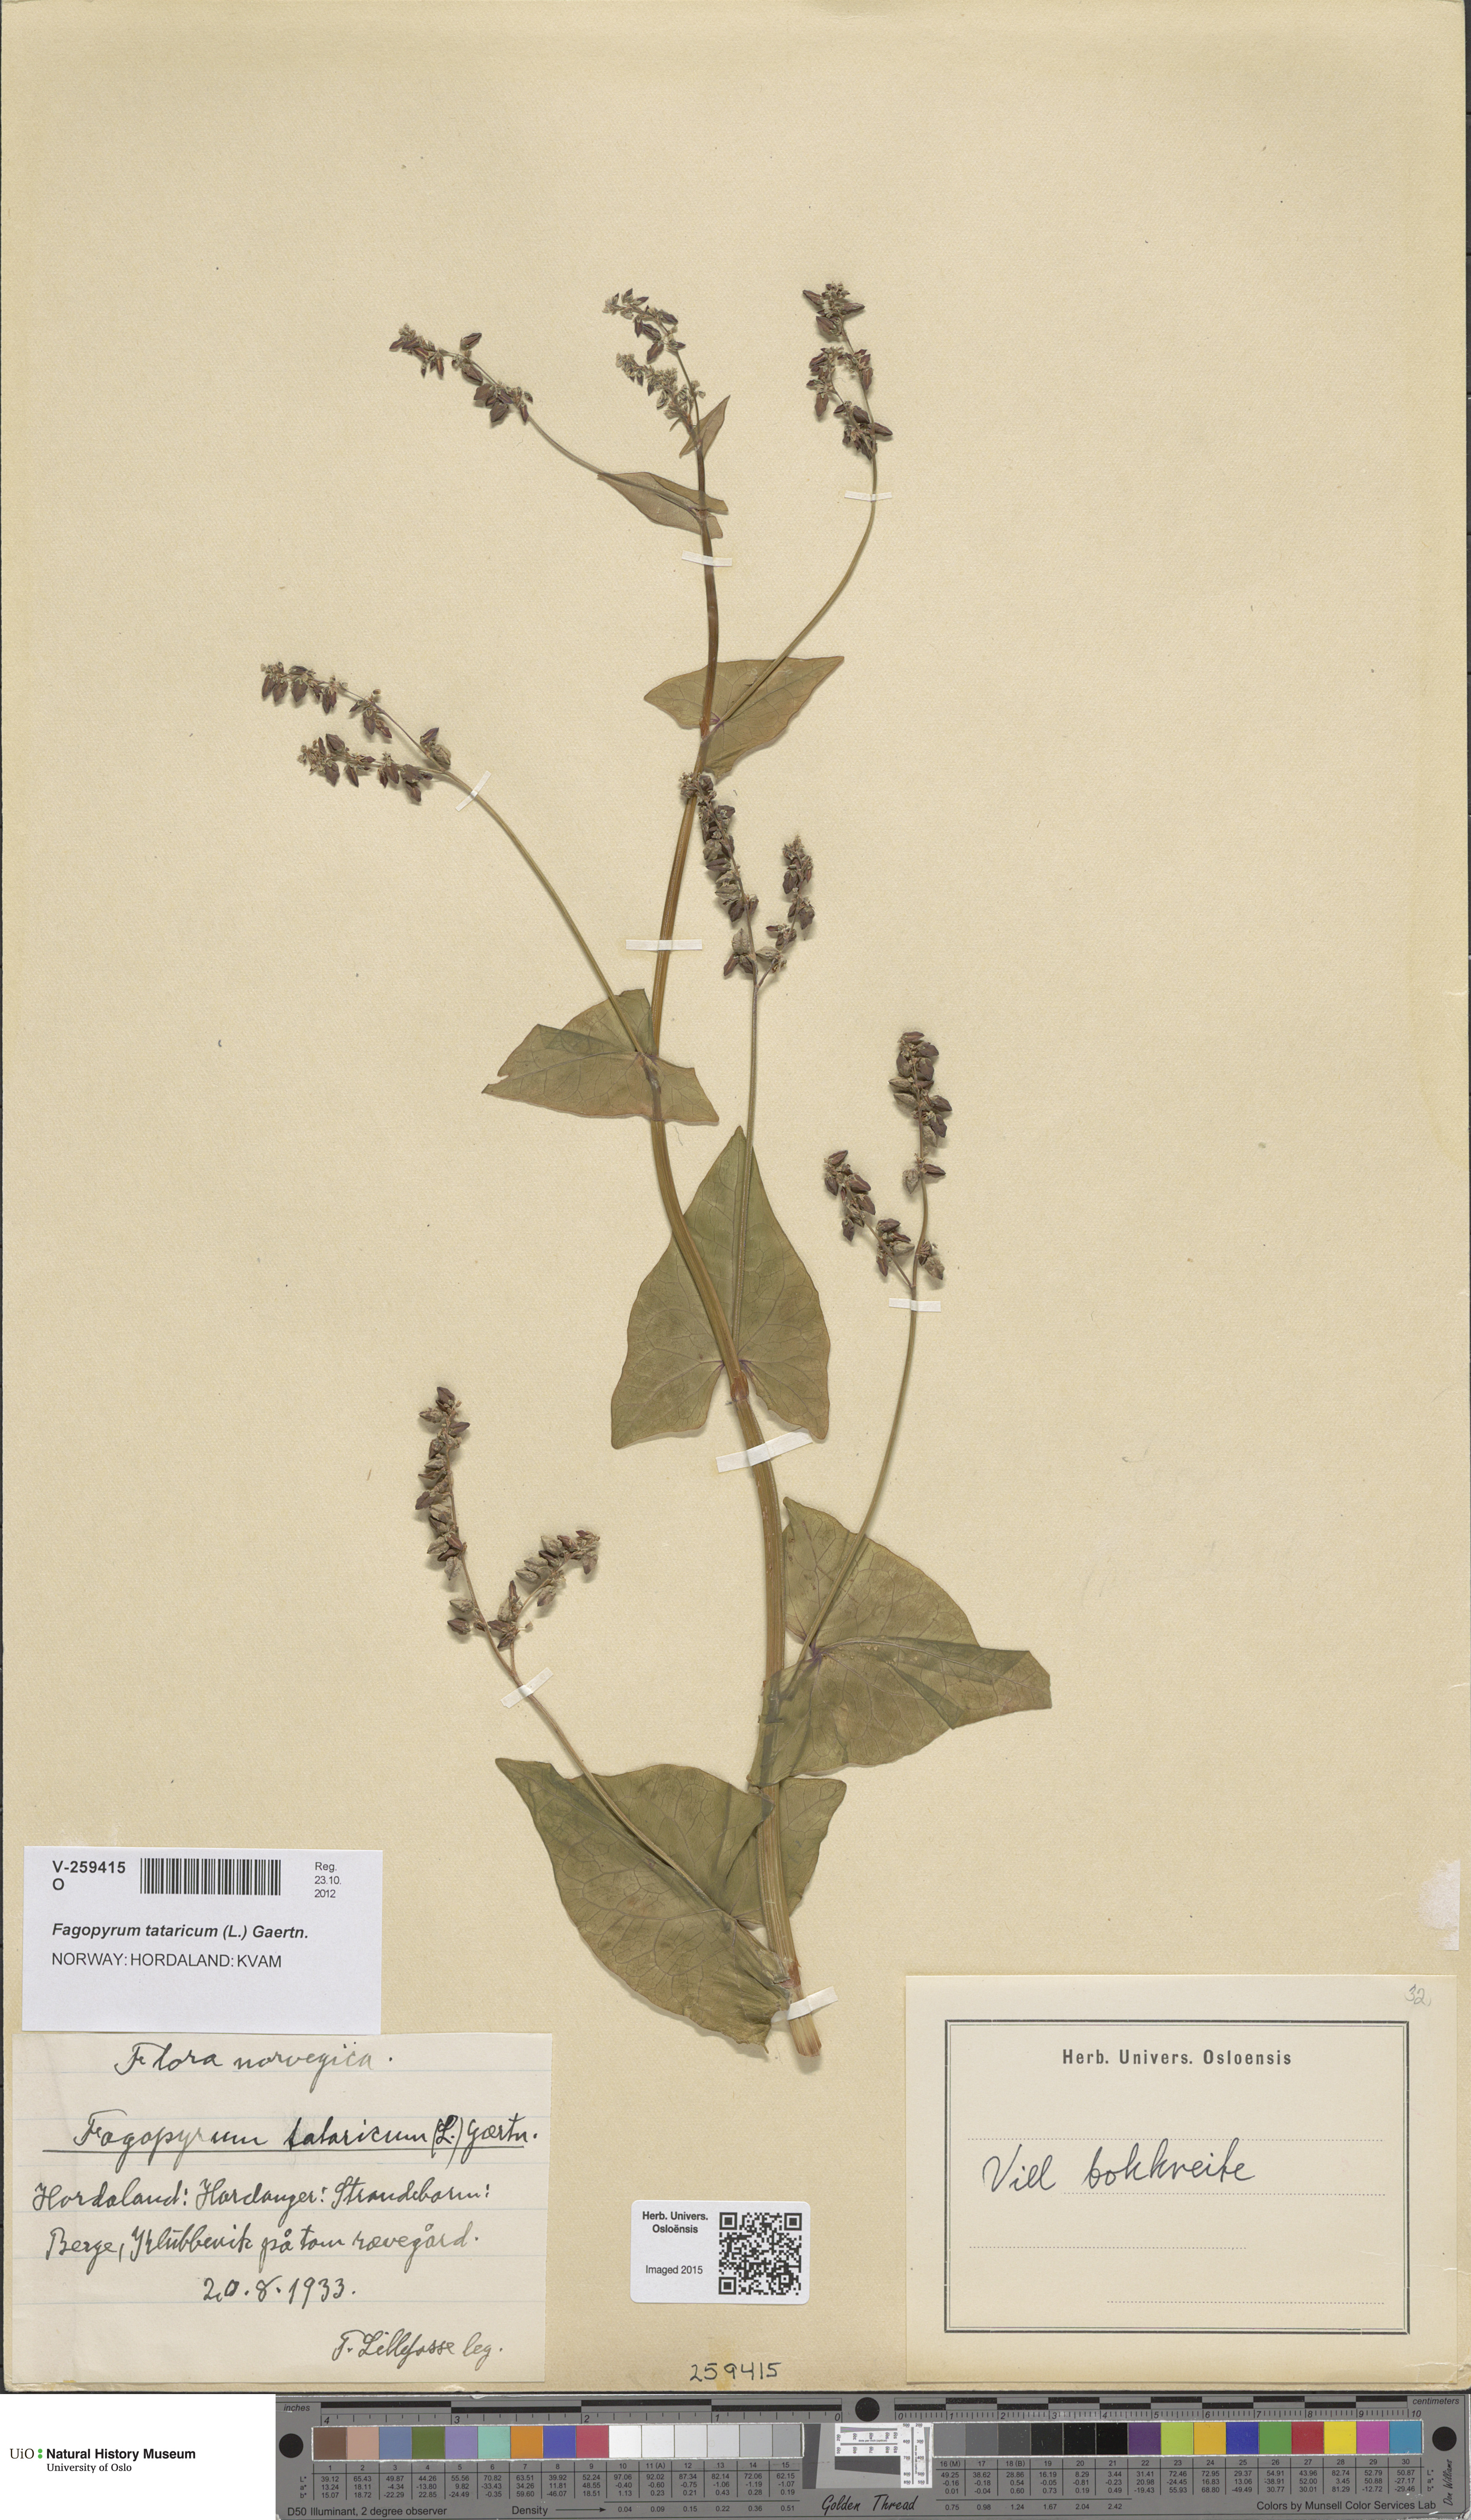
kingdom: Plantae
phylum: Tracheophyta
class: Magnoliopsida
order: Caryophyllales
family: Polygonaceae
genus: Fagopyrum
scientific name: Fagopyrum tataricum
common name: Green buckwheat
